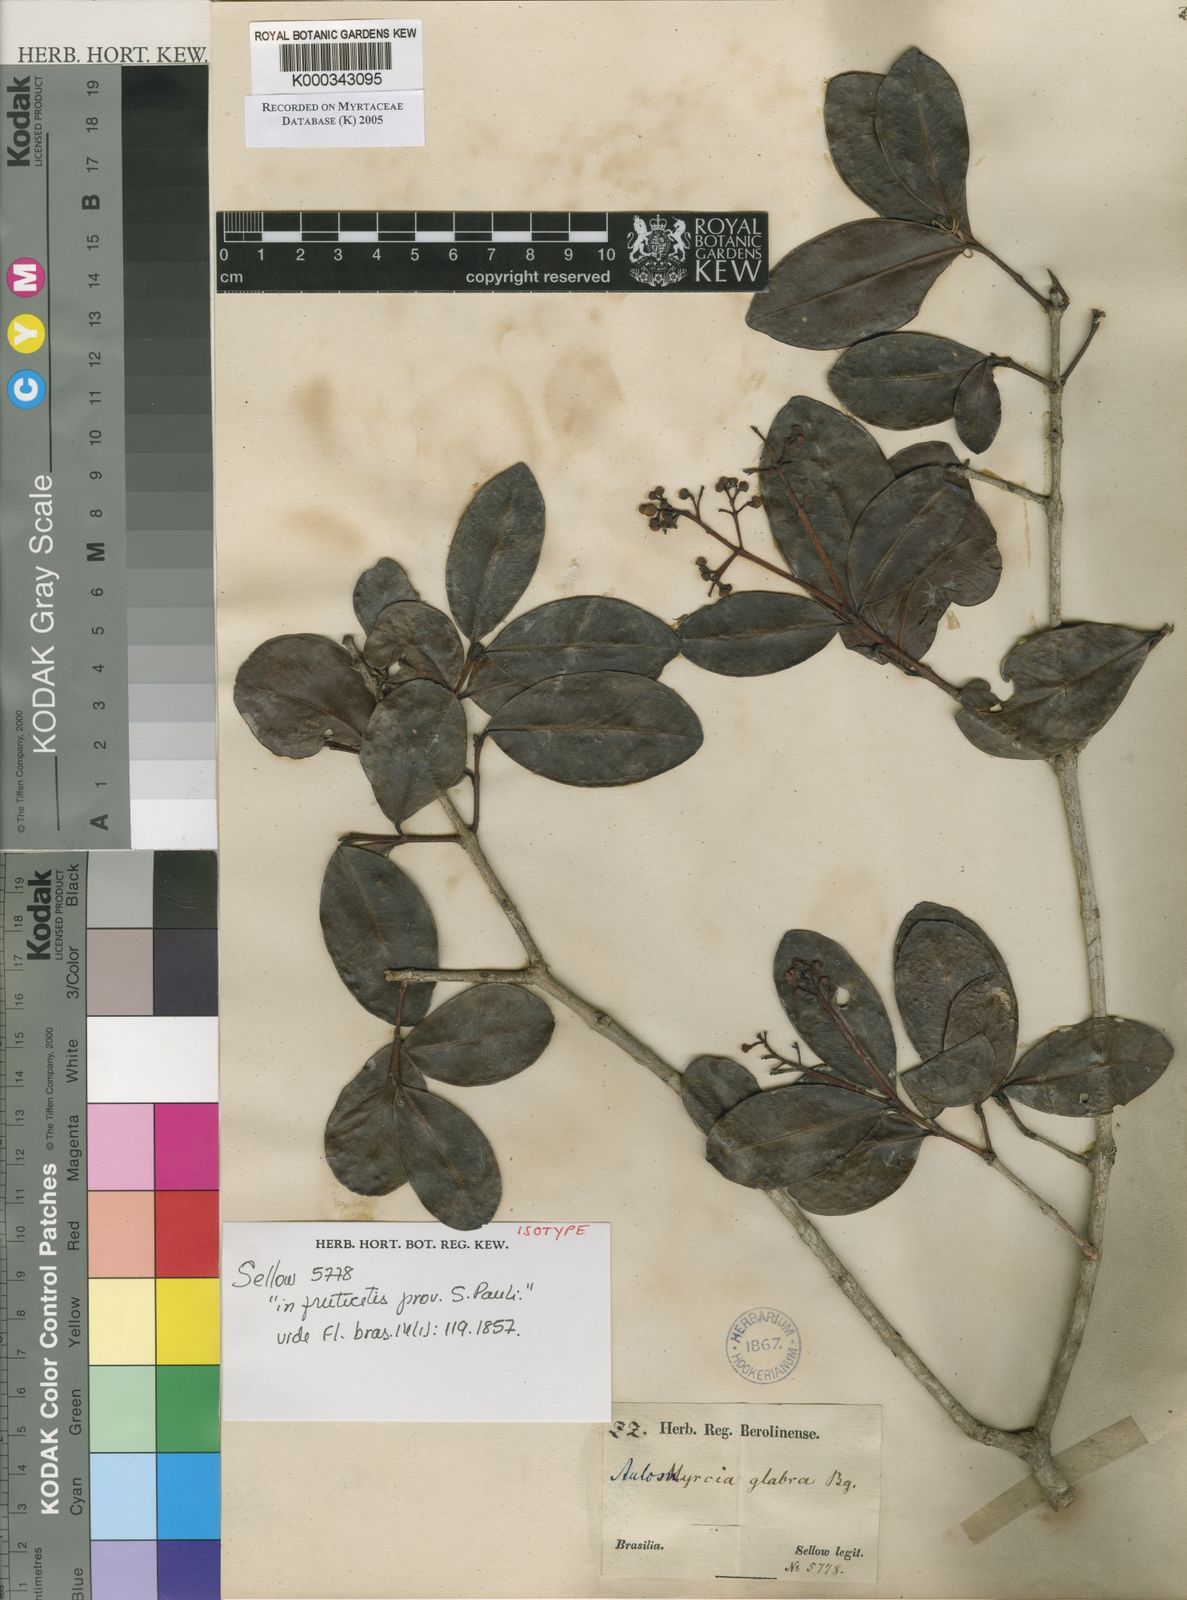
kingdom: Plantae
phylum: Tracheophyta
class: Magnoliopsida
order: Myrtales
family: Myrtaceae
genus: Myrcia
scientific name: Myrcia glabra
